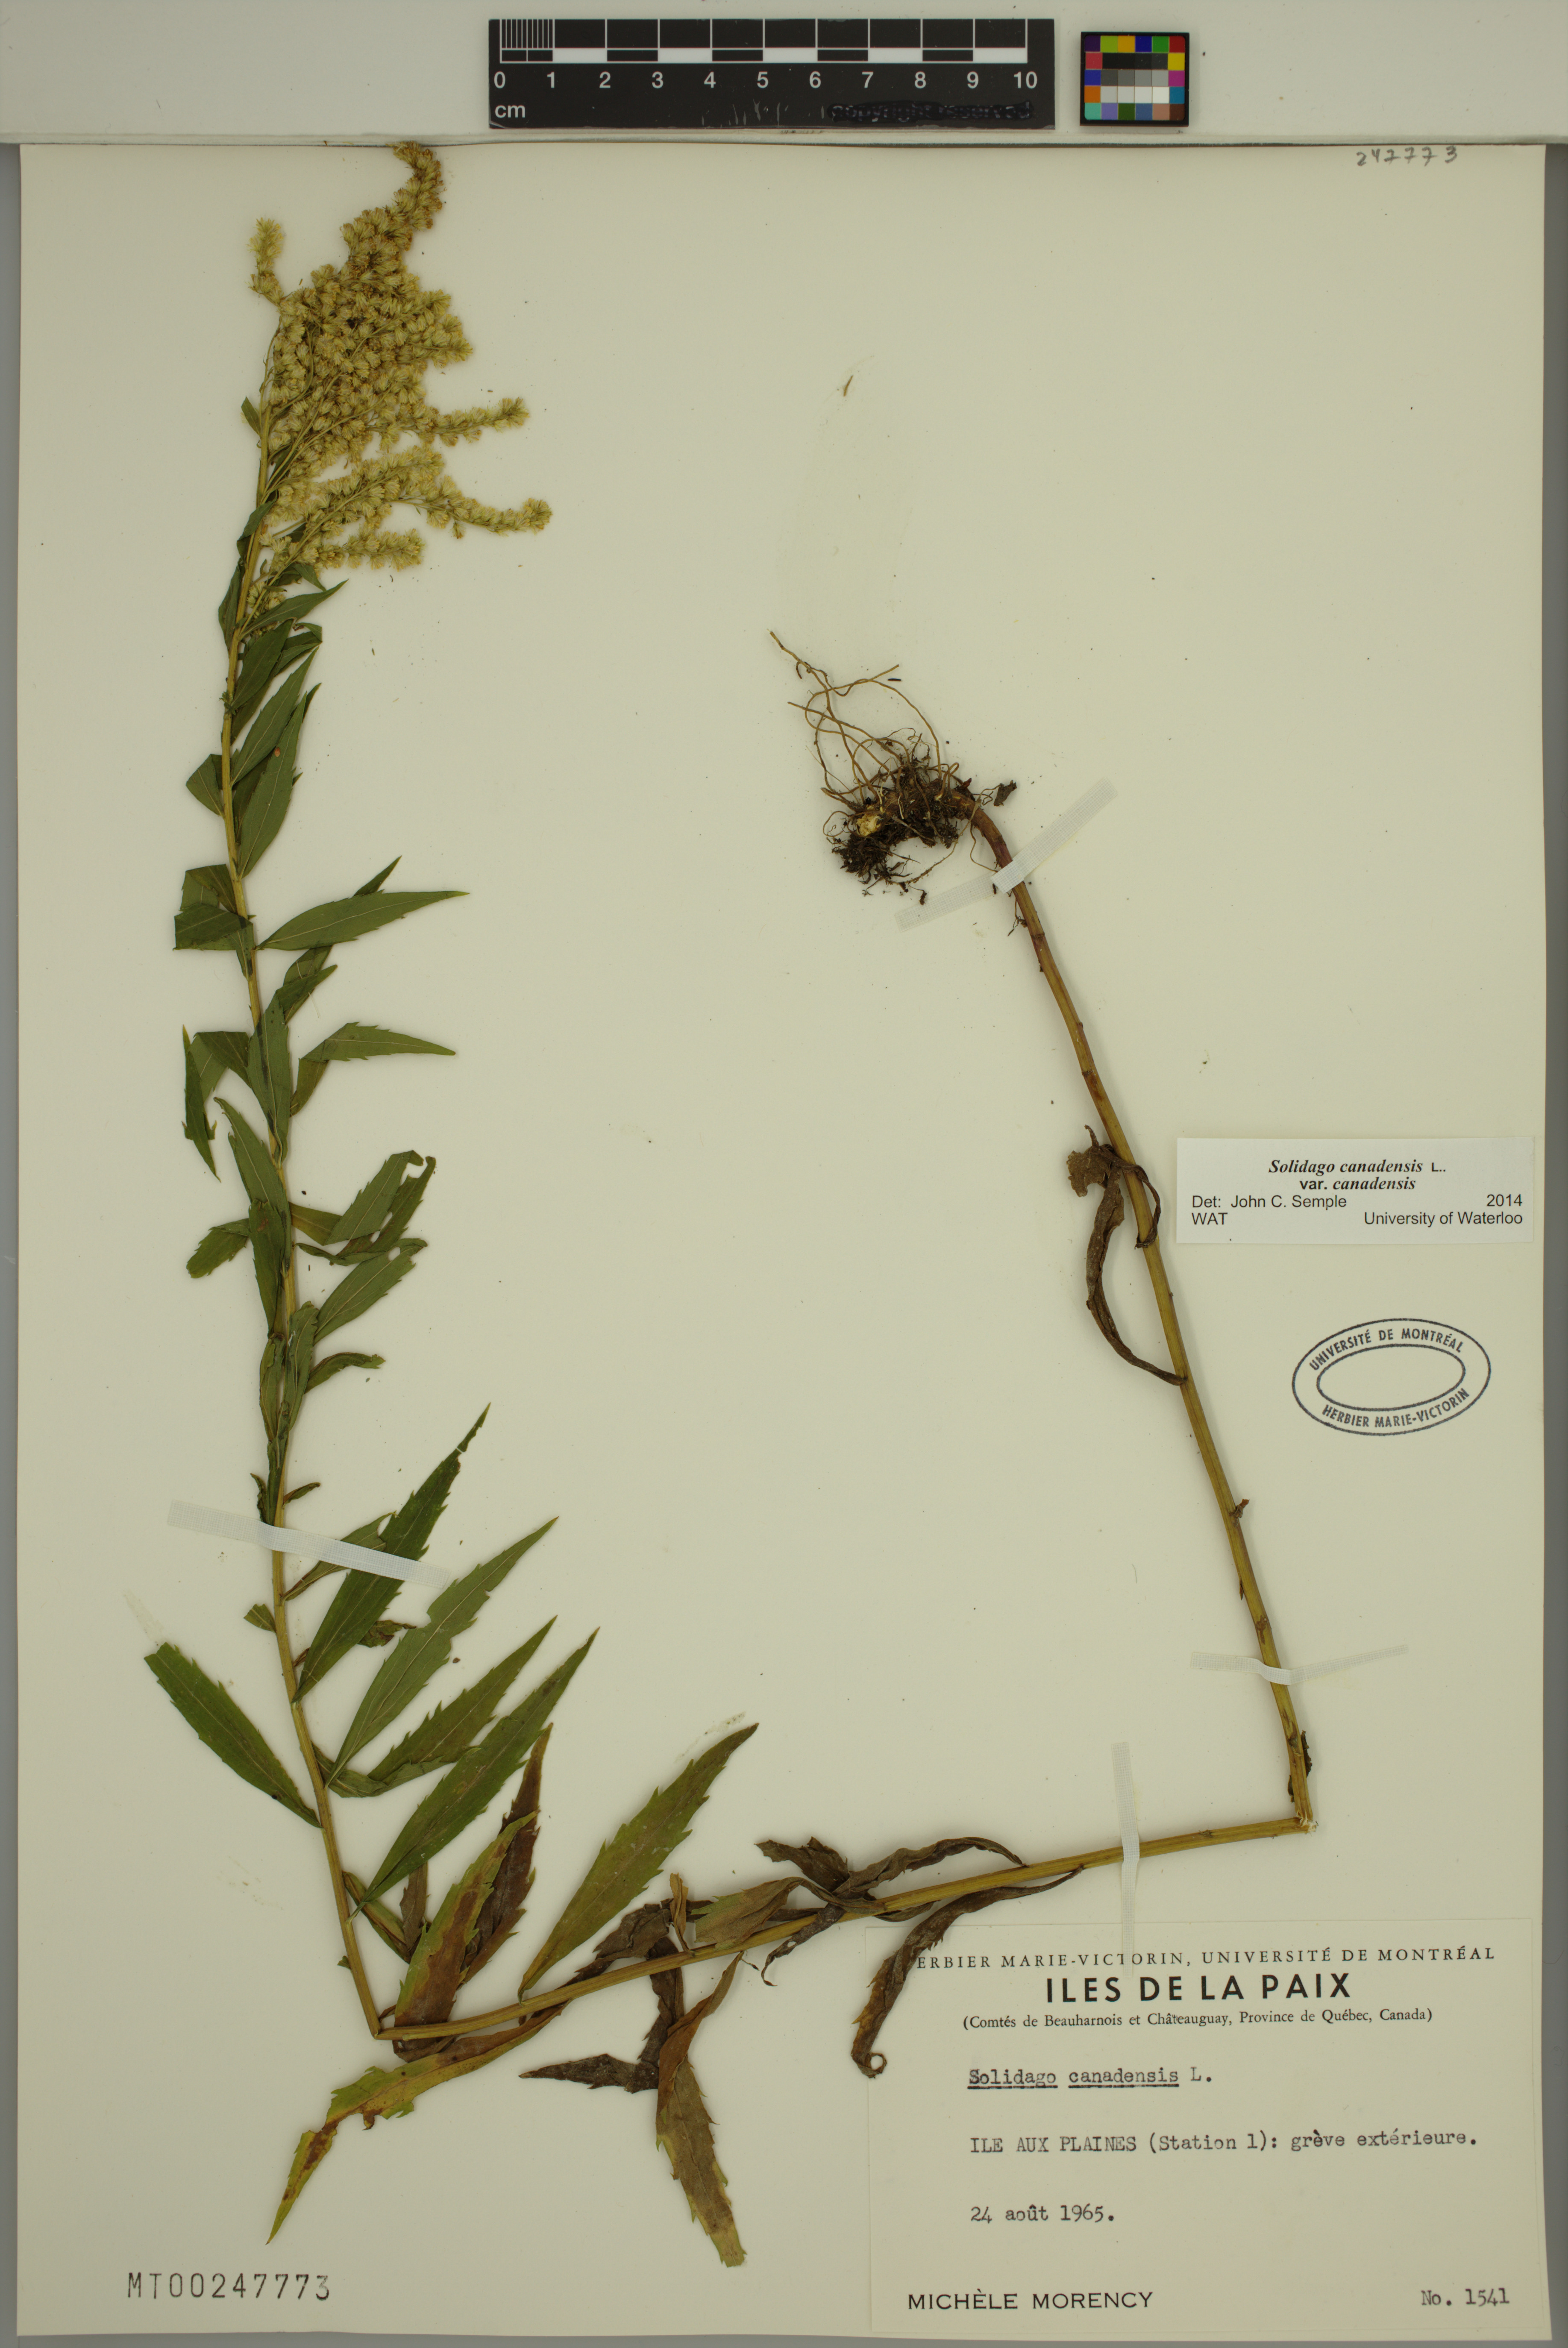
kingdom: Plantae
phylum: Tracheophyta
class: Magnoliopsida
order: Asterales
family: Asteraceae
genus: Solidago
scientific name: Solidago canadensis
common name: Canada goldenrod
